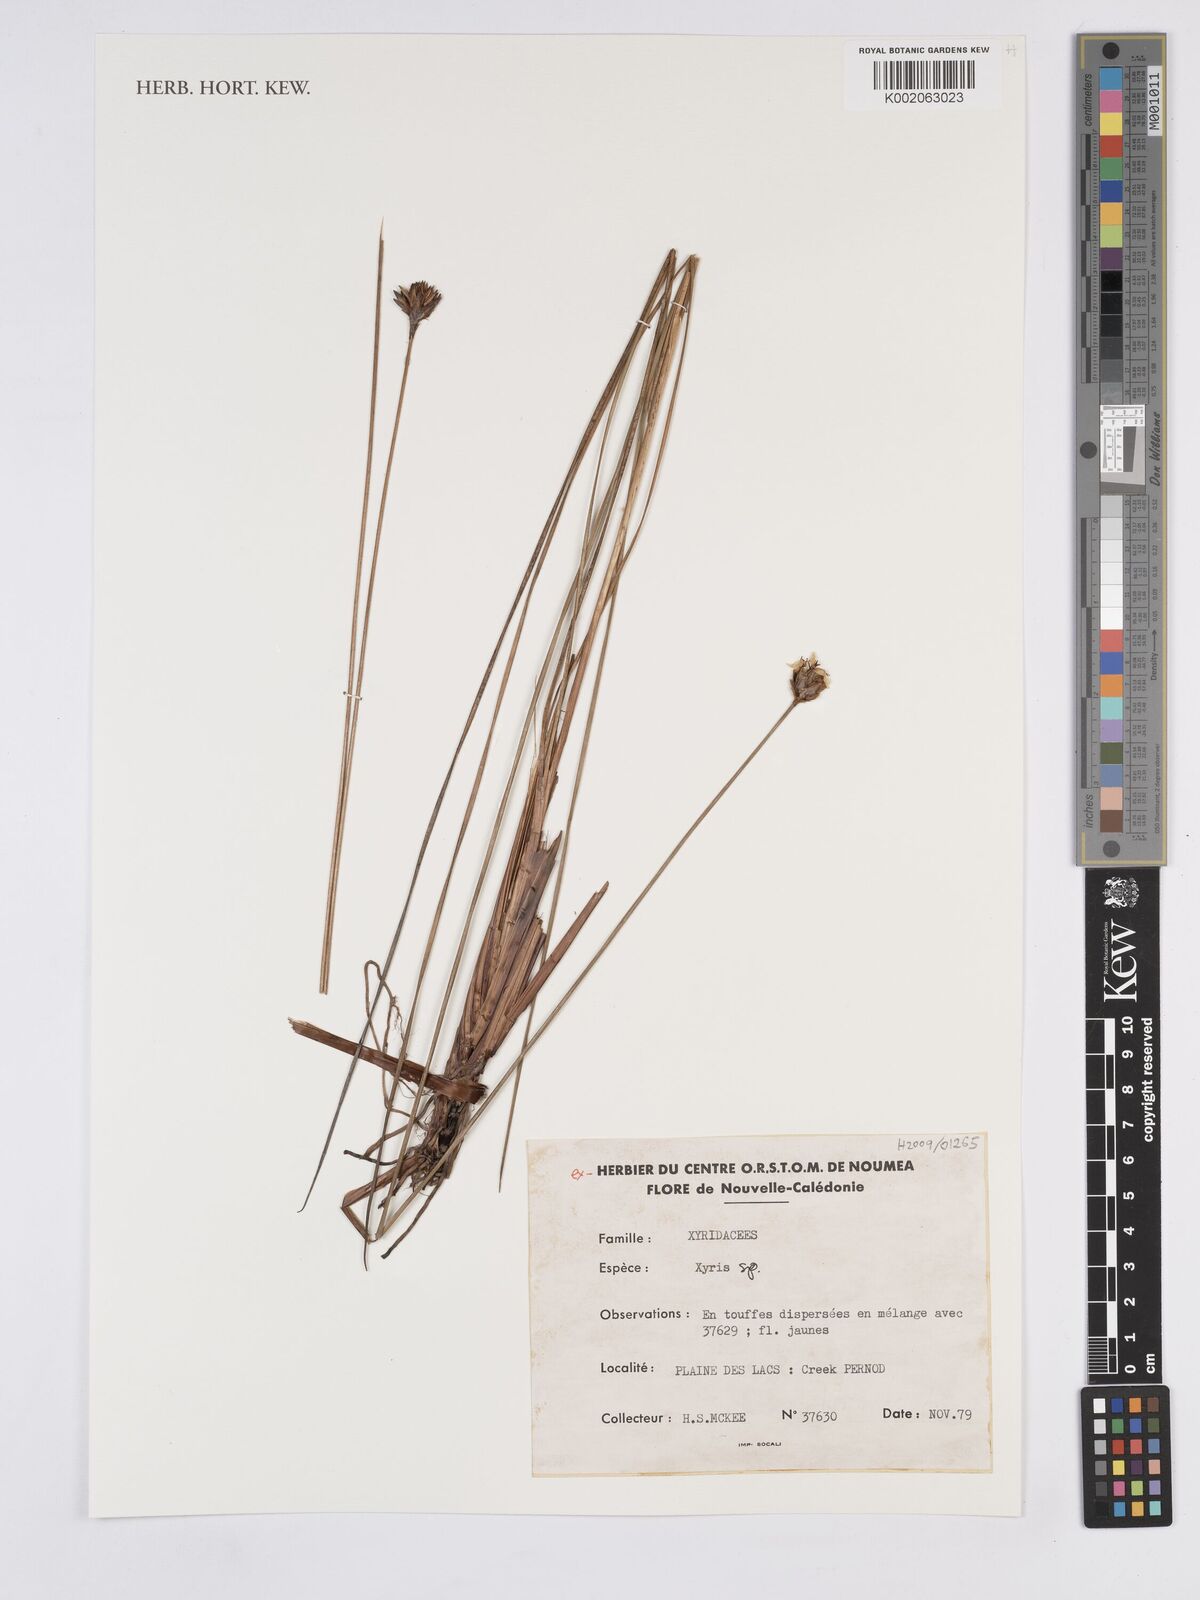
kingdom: Plantae
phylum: Tracheophyta
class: Liliopsida
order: Poales
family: Xyridaceae
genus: Xyris
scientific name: Xyris
